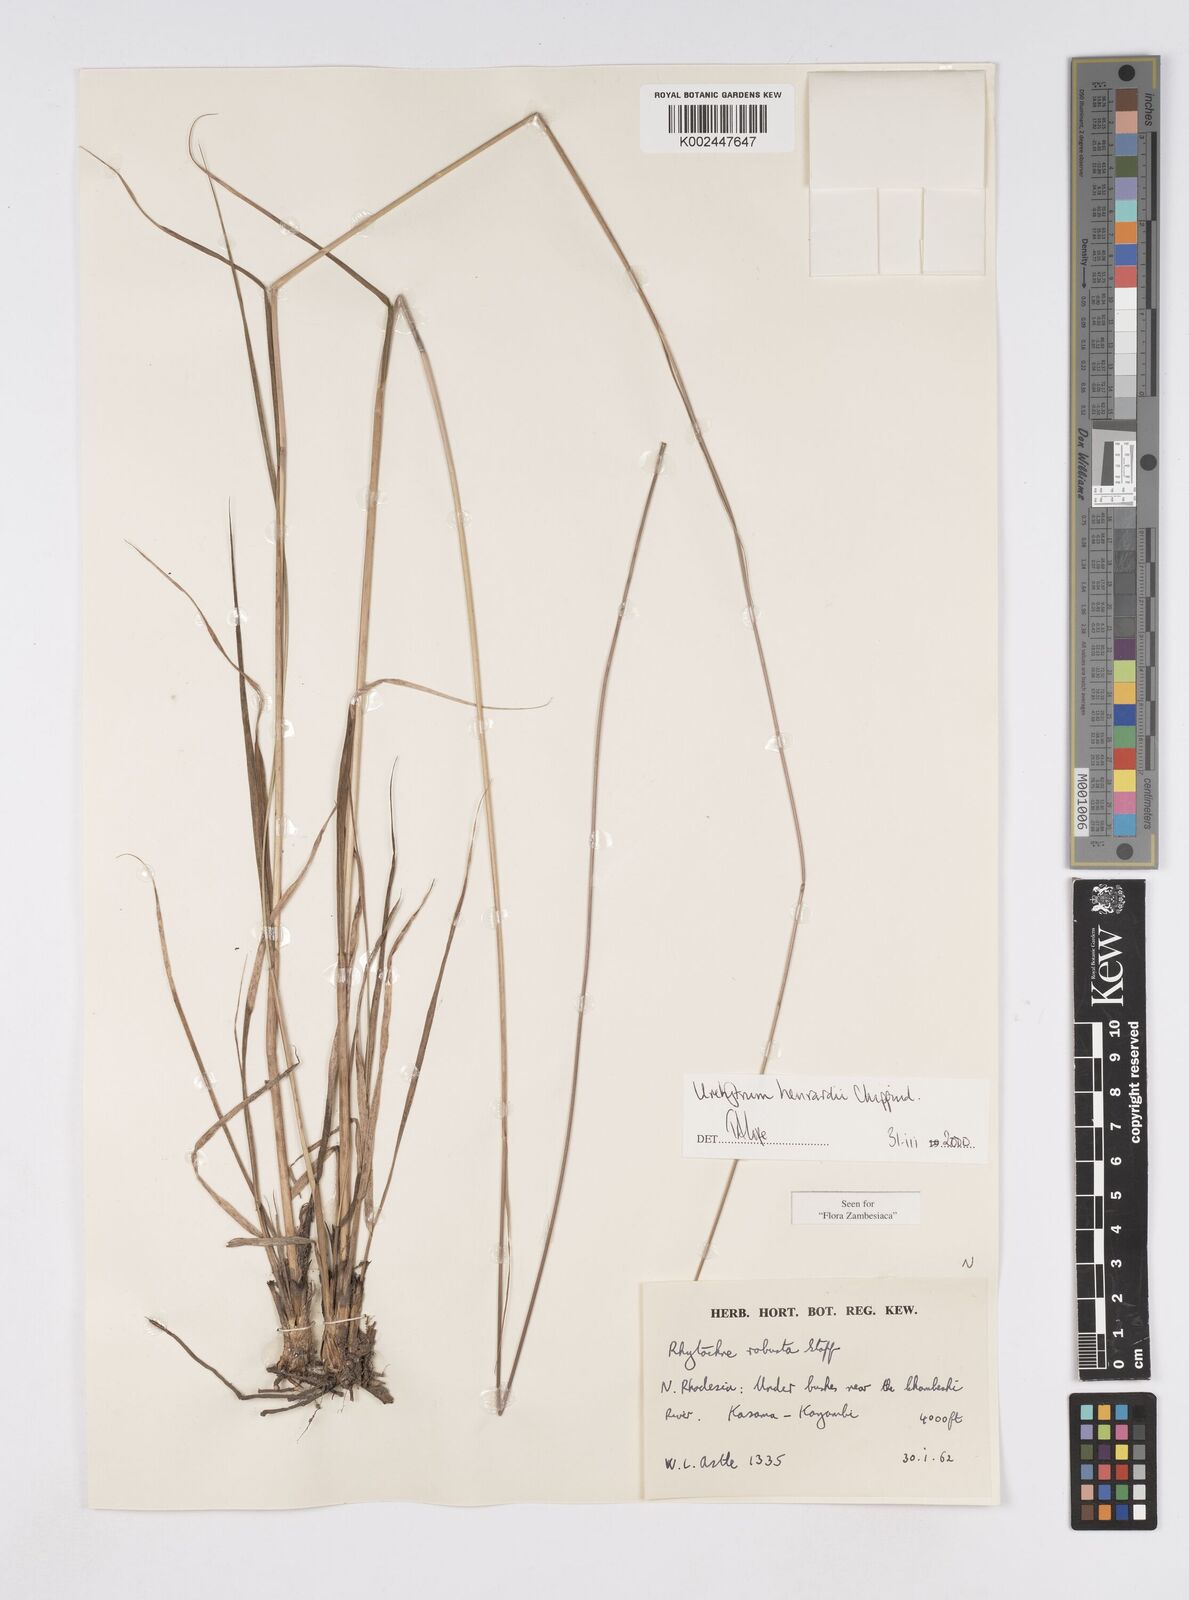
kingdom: Plantae
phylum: Tracheophyta
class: Liliopsida
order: Poales
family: Poaceae
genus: Urelytrum
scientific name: Urelytrum henrardii
